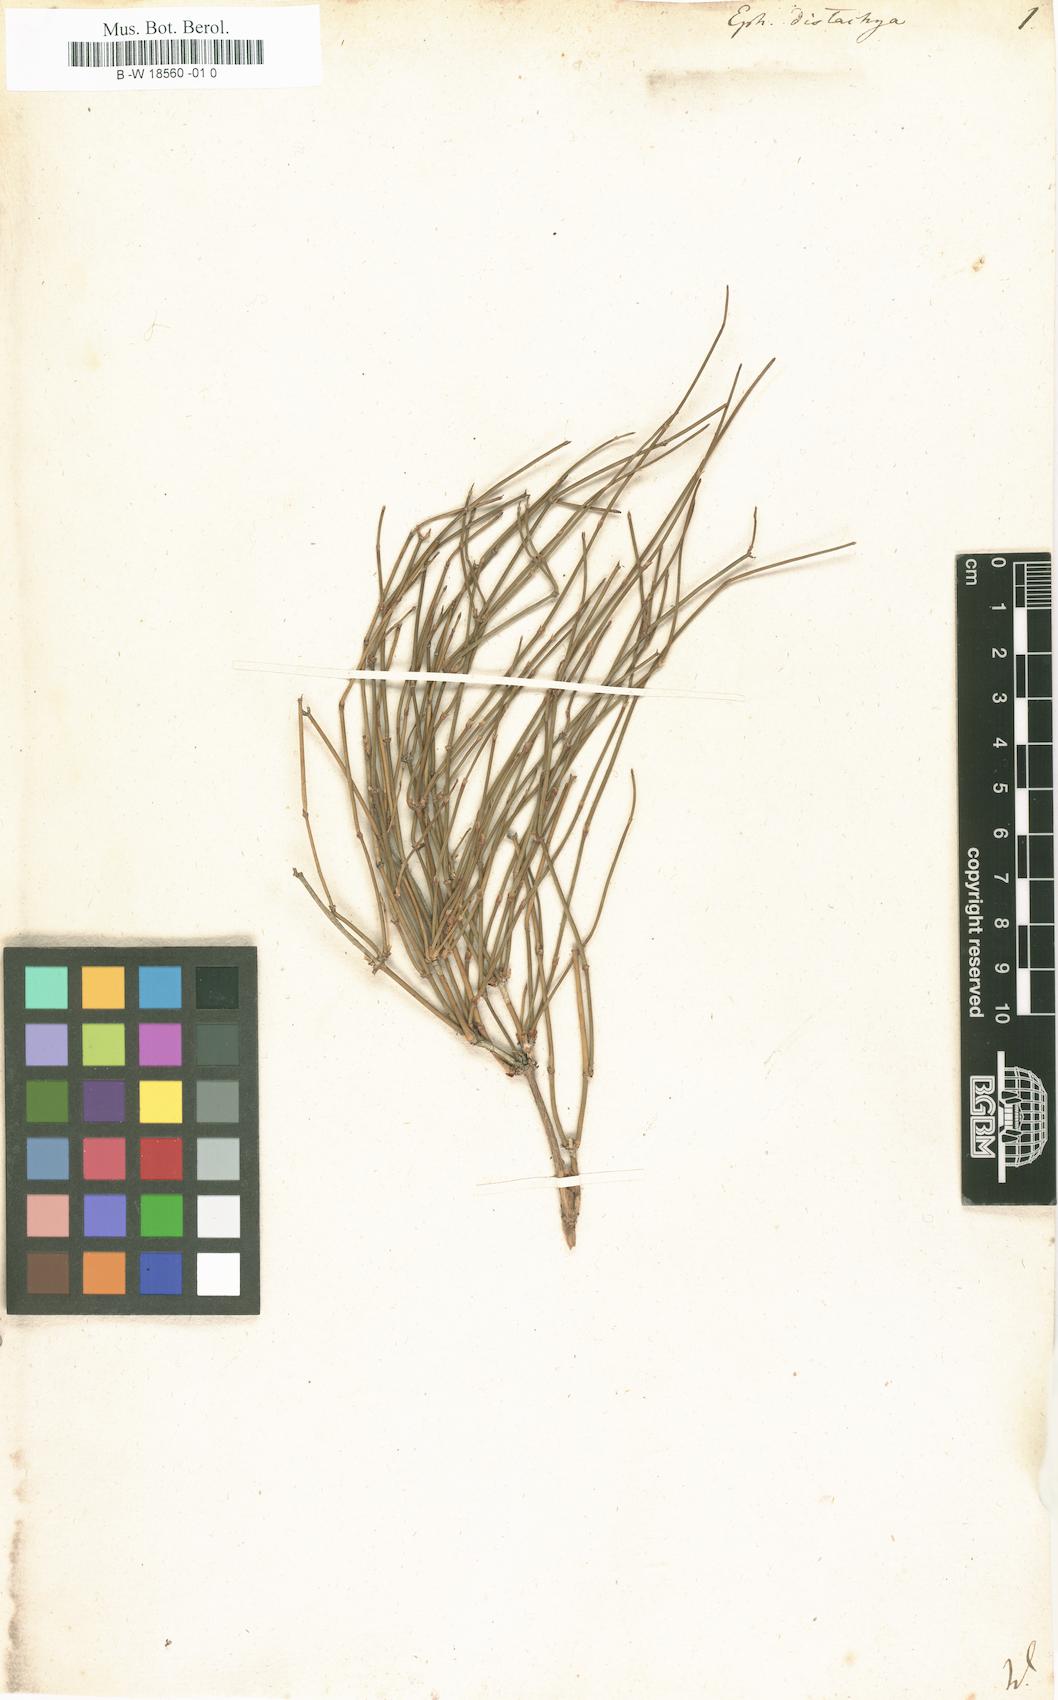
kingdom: Plantae
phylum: Tracheophyta
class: Gnetopsida
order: Ephedrales
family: Ephedraceae
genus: Ephedra
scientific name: Ephedra distachya
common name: Sea grape
